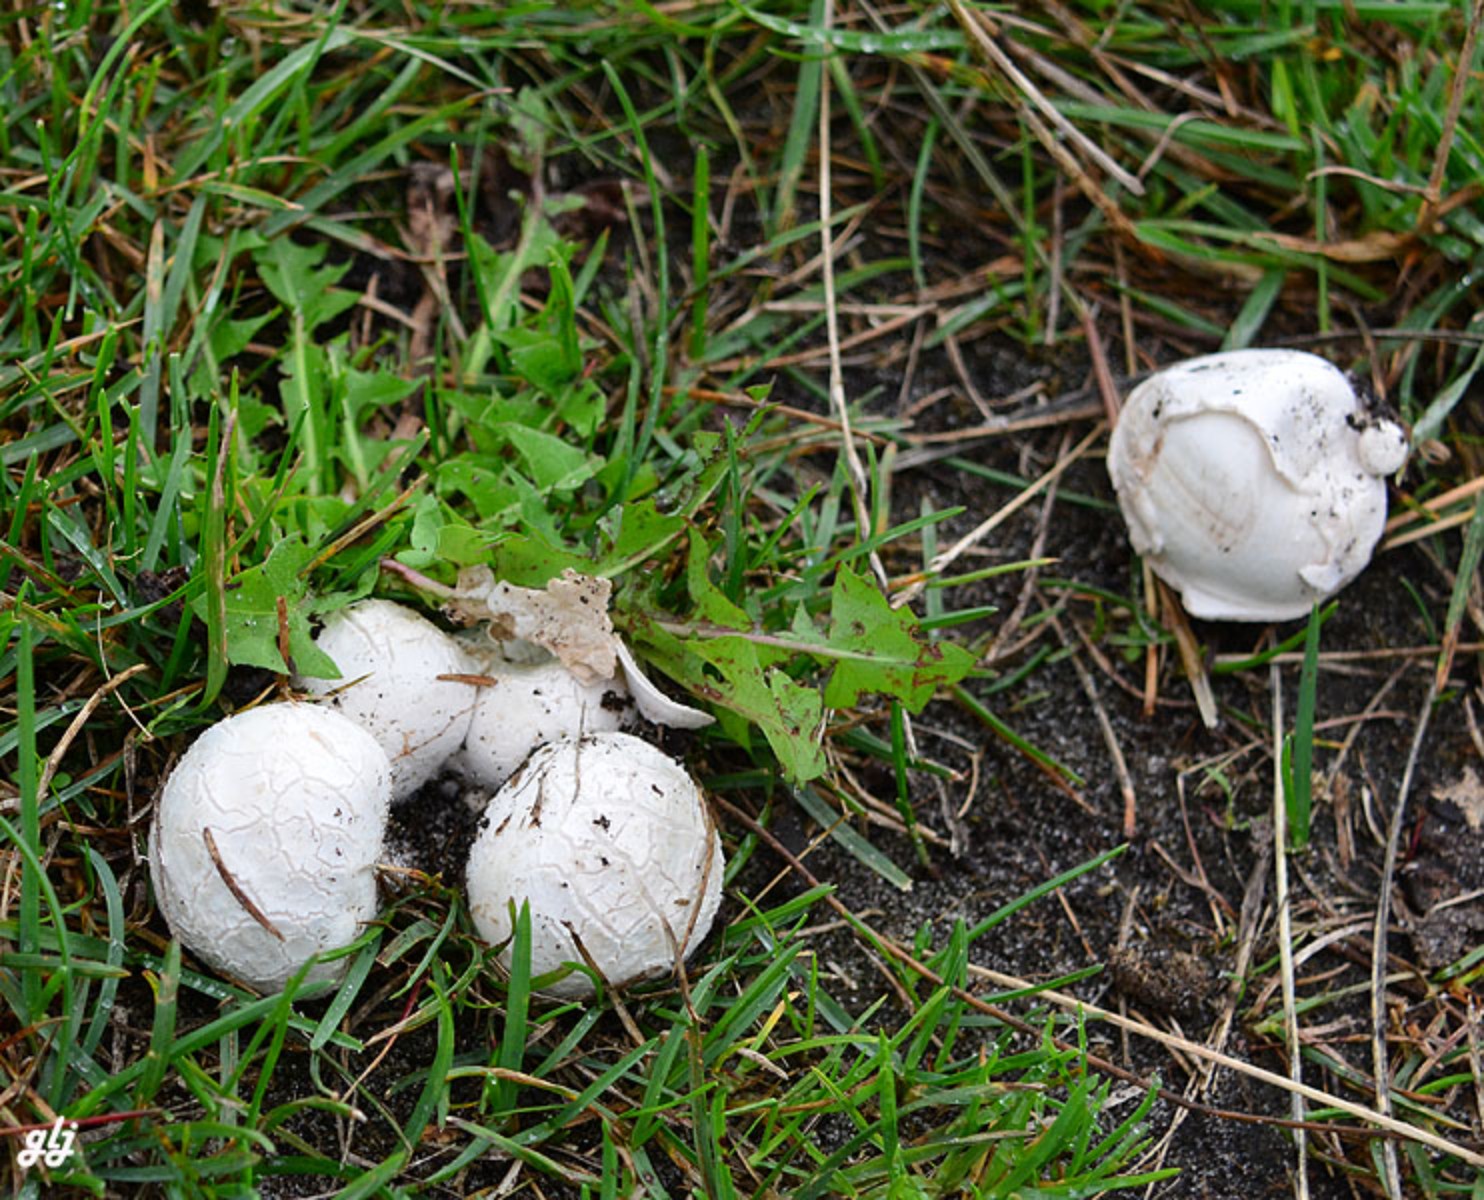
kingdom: Fungi
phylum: Basidiomycota
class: Agaricomycetes
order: Agaricales
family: Lycoperdaceae
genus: Bovista
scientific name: Bovista plumbea
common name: blygrå bovist
